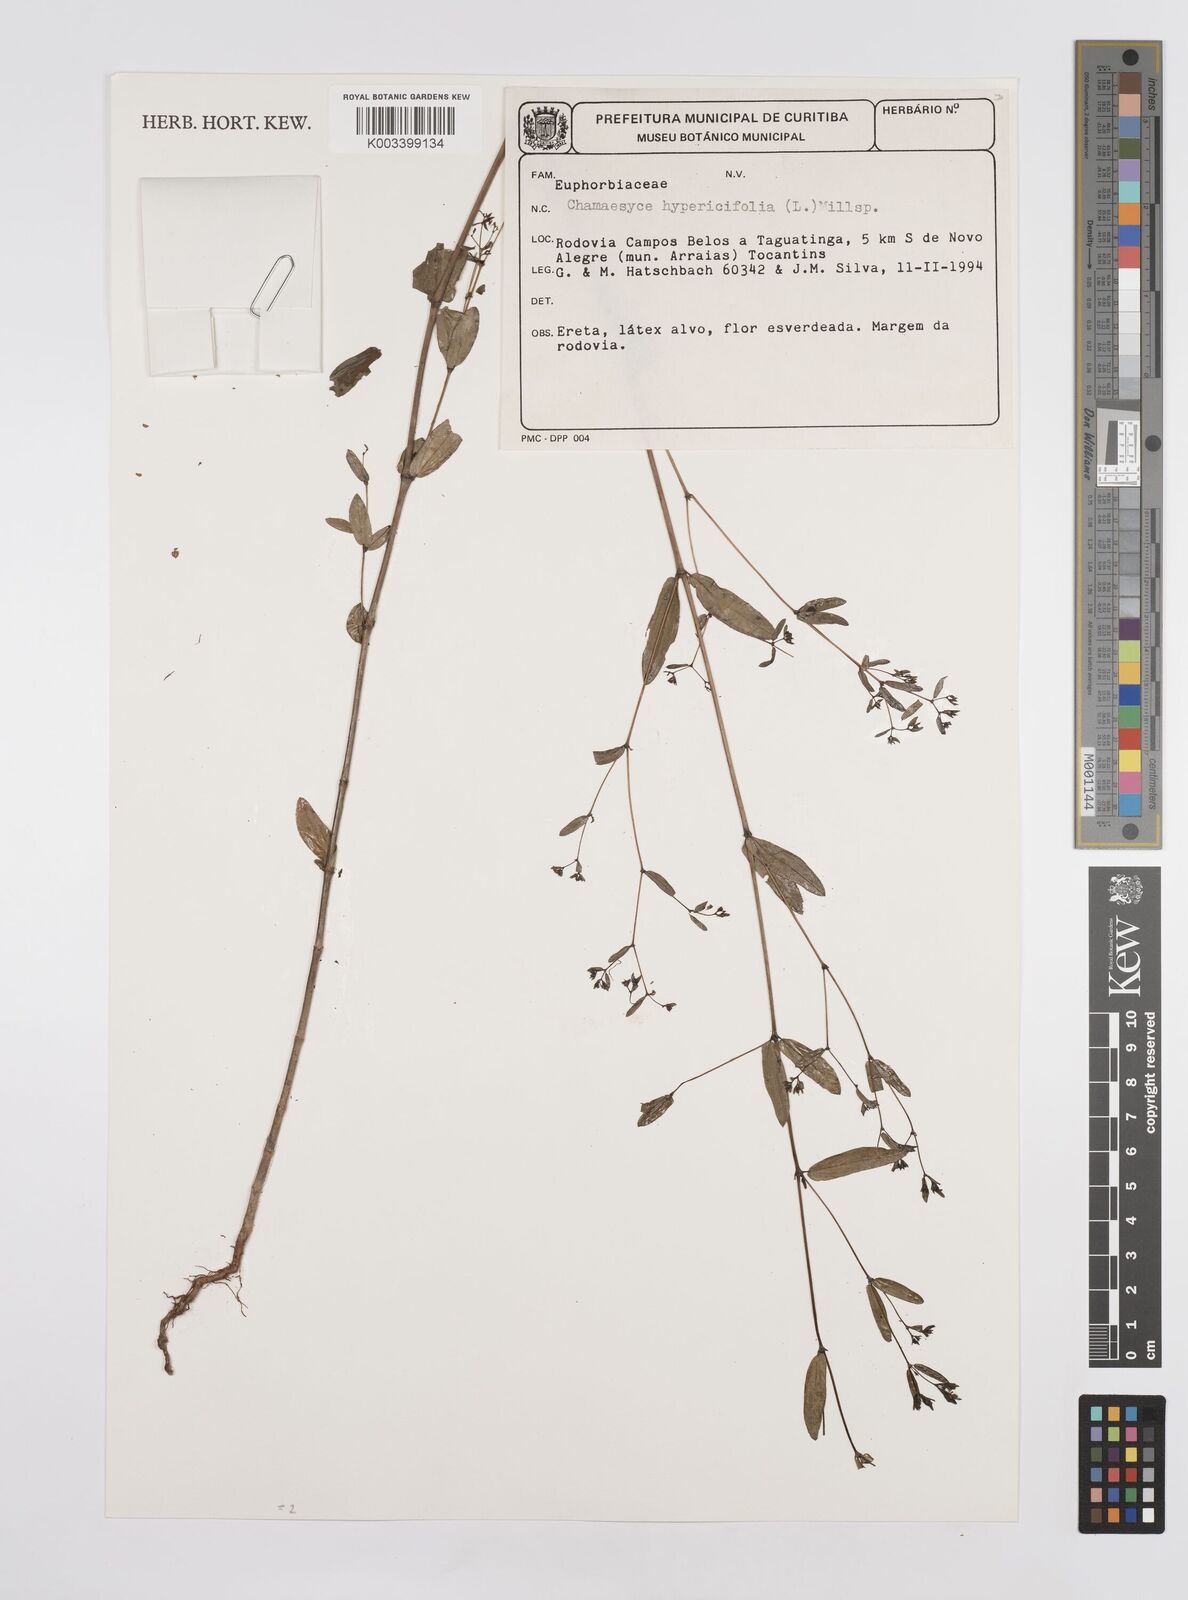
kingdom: Plantae
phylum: Tracheophyta
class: Magnoliopsida
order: Malpighiales
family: Euphorbiaceae
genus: Euphorbia
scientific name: Euphorbia hypericifolia
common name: Graceful sandmat
